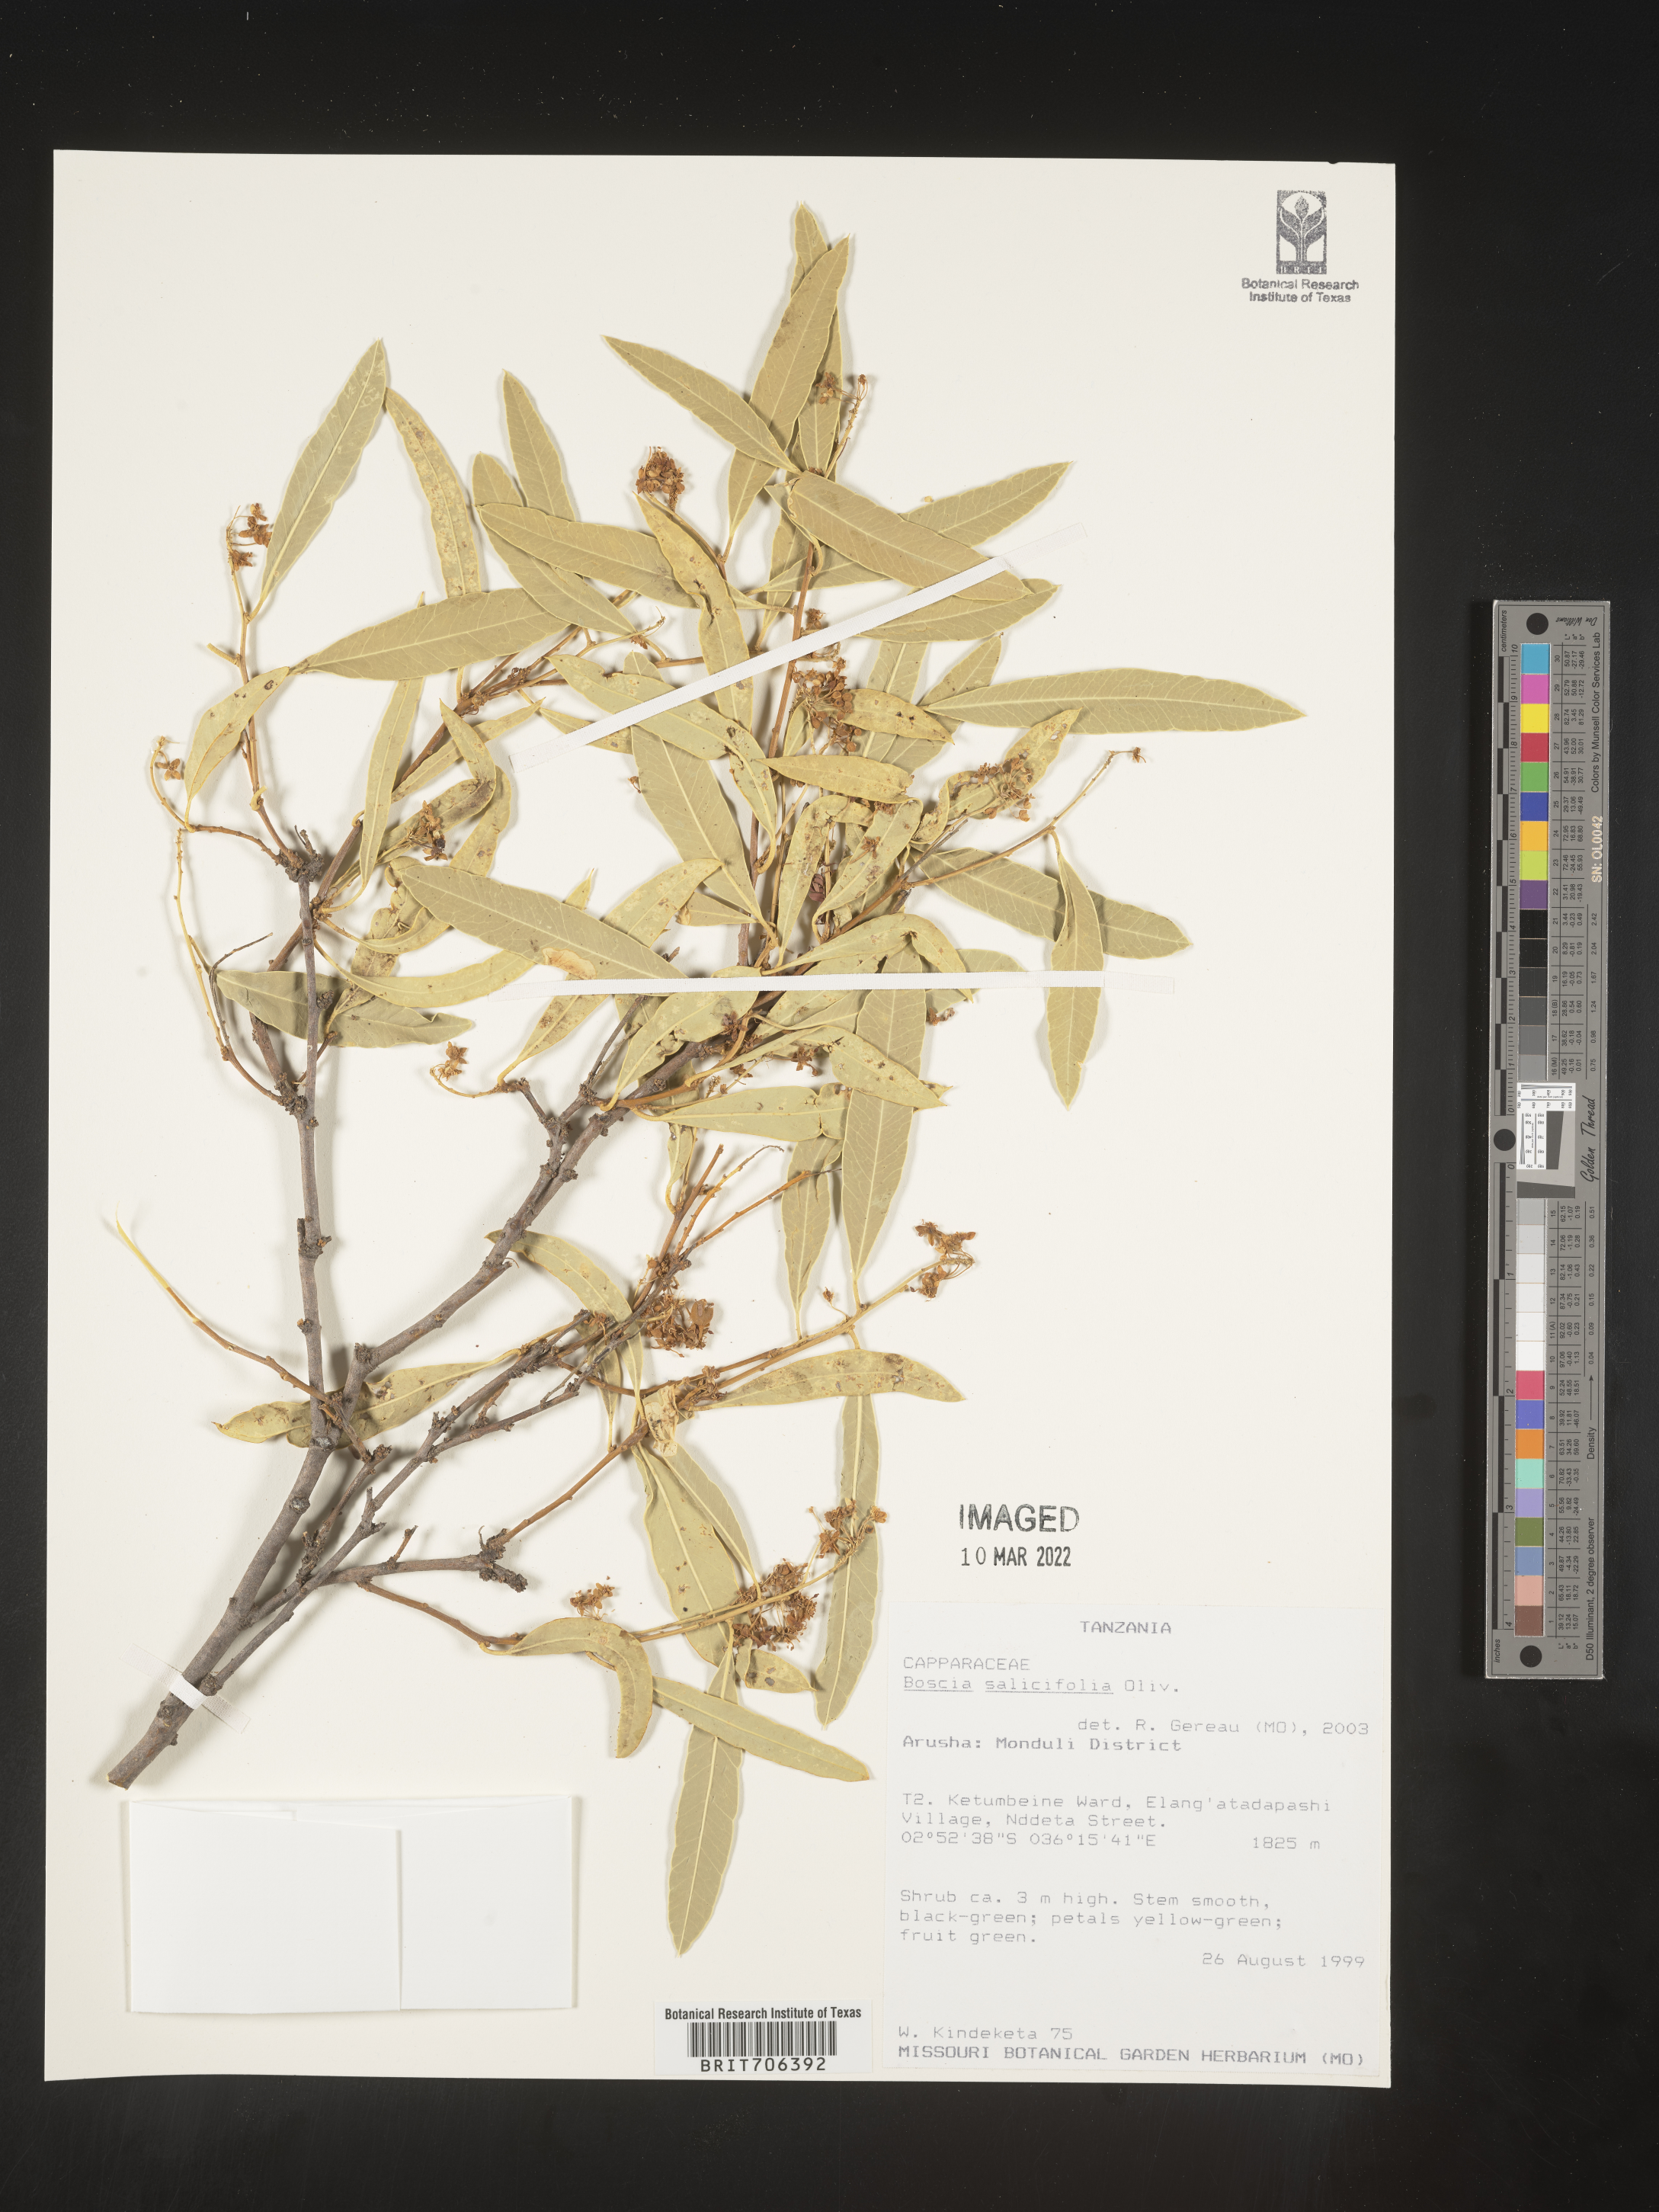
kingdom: Plantae
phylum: Tracheophyta
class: Magnoliopsida
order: Brassicales
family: Capparaceae
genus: Boscia
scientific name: Boscia
